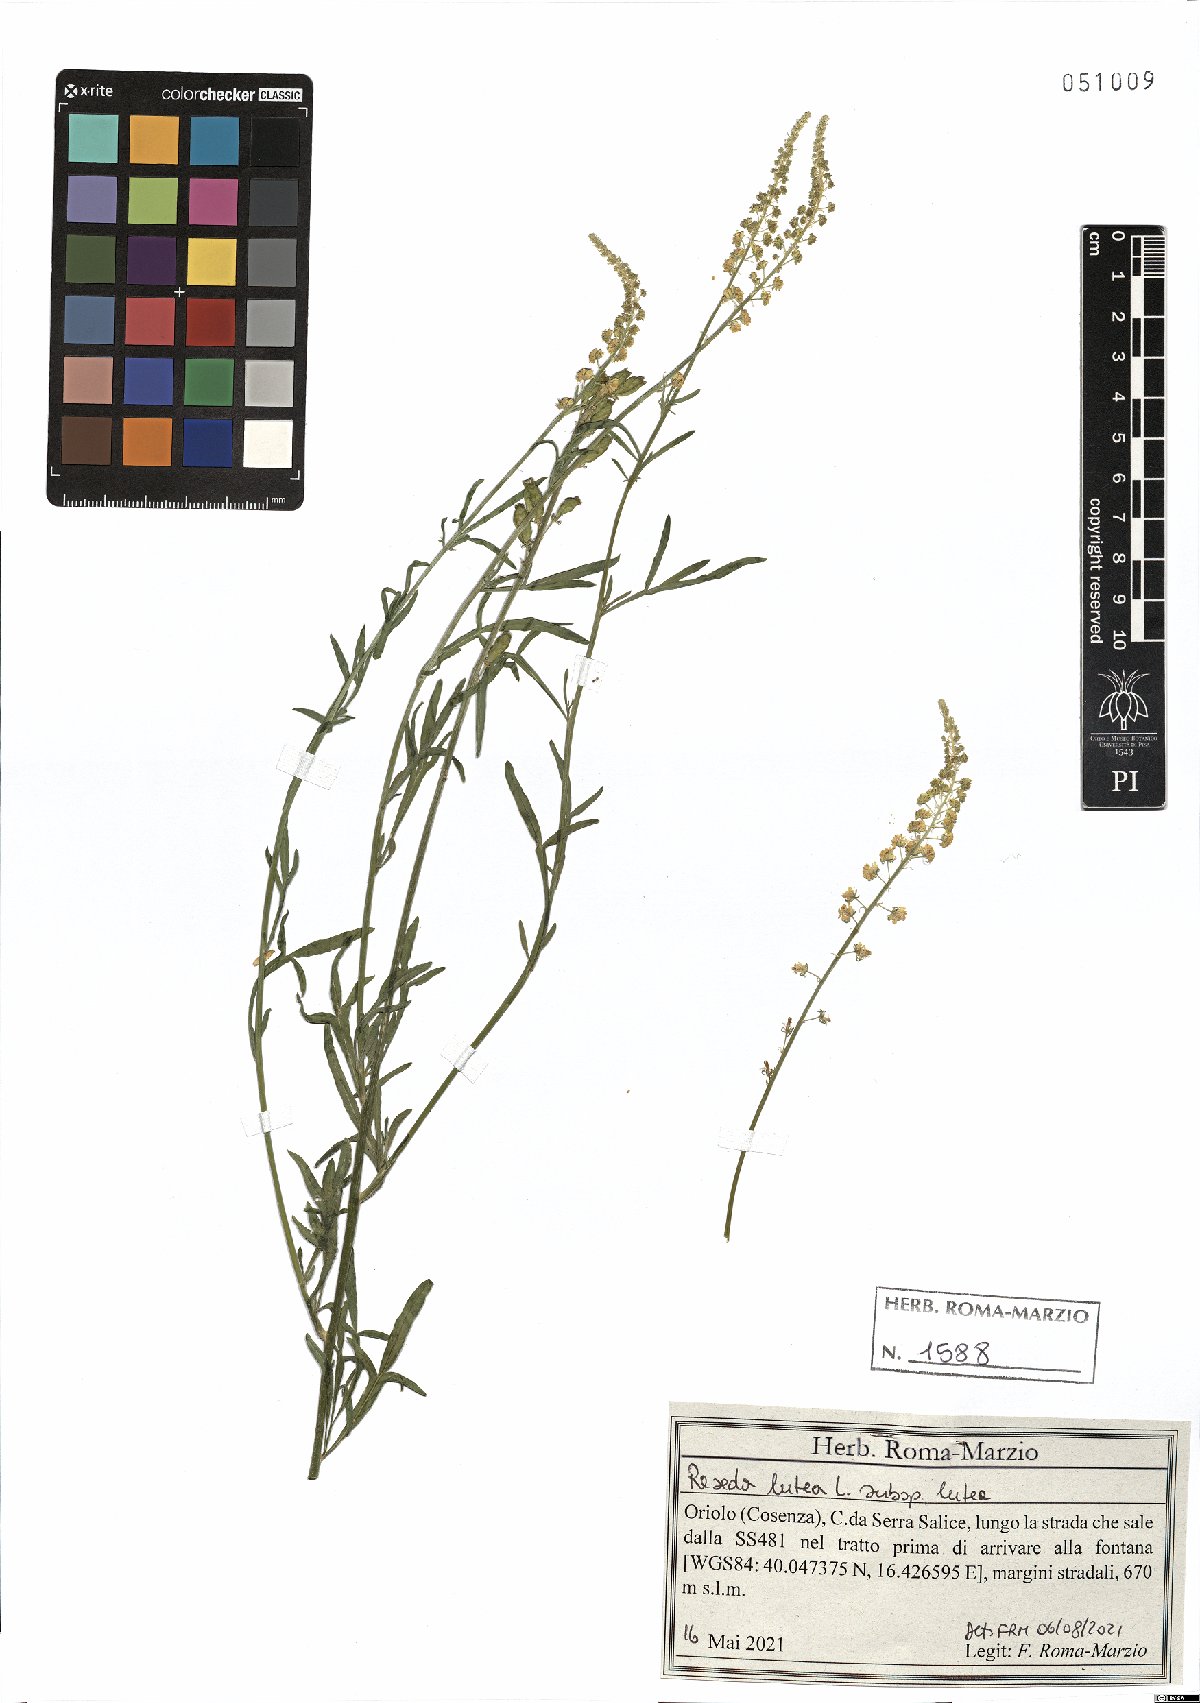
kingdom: Plantae
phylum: Tracheophyta
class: Magnoliopsida
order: Brassicales
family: Resedaceae
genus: Reseda
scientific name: Reseda lutea
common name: Wild mignonette
